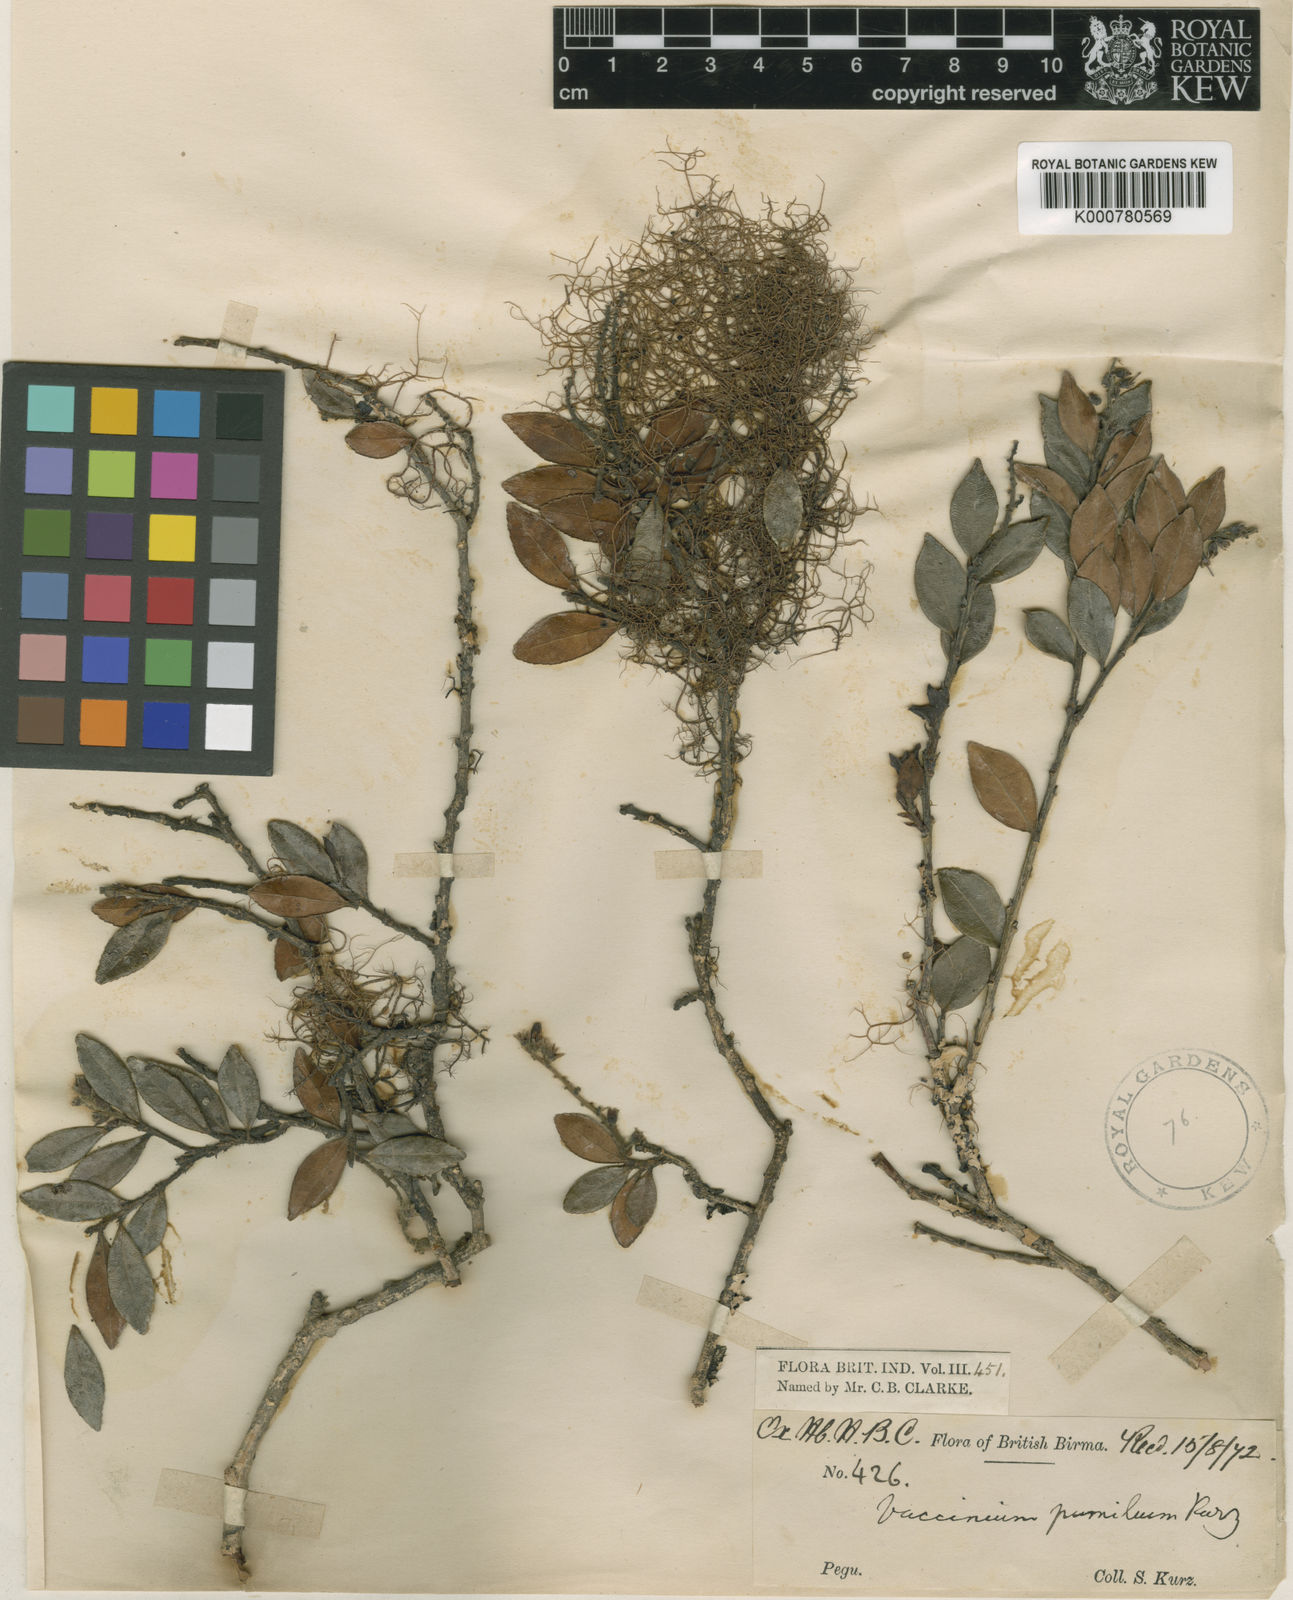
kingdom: Plantae
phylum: Tracheophyta
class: Magnoliopsida
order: Ericales
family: Ericaceae
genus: Vaccinium
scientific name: Vaccinium pumilum
